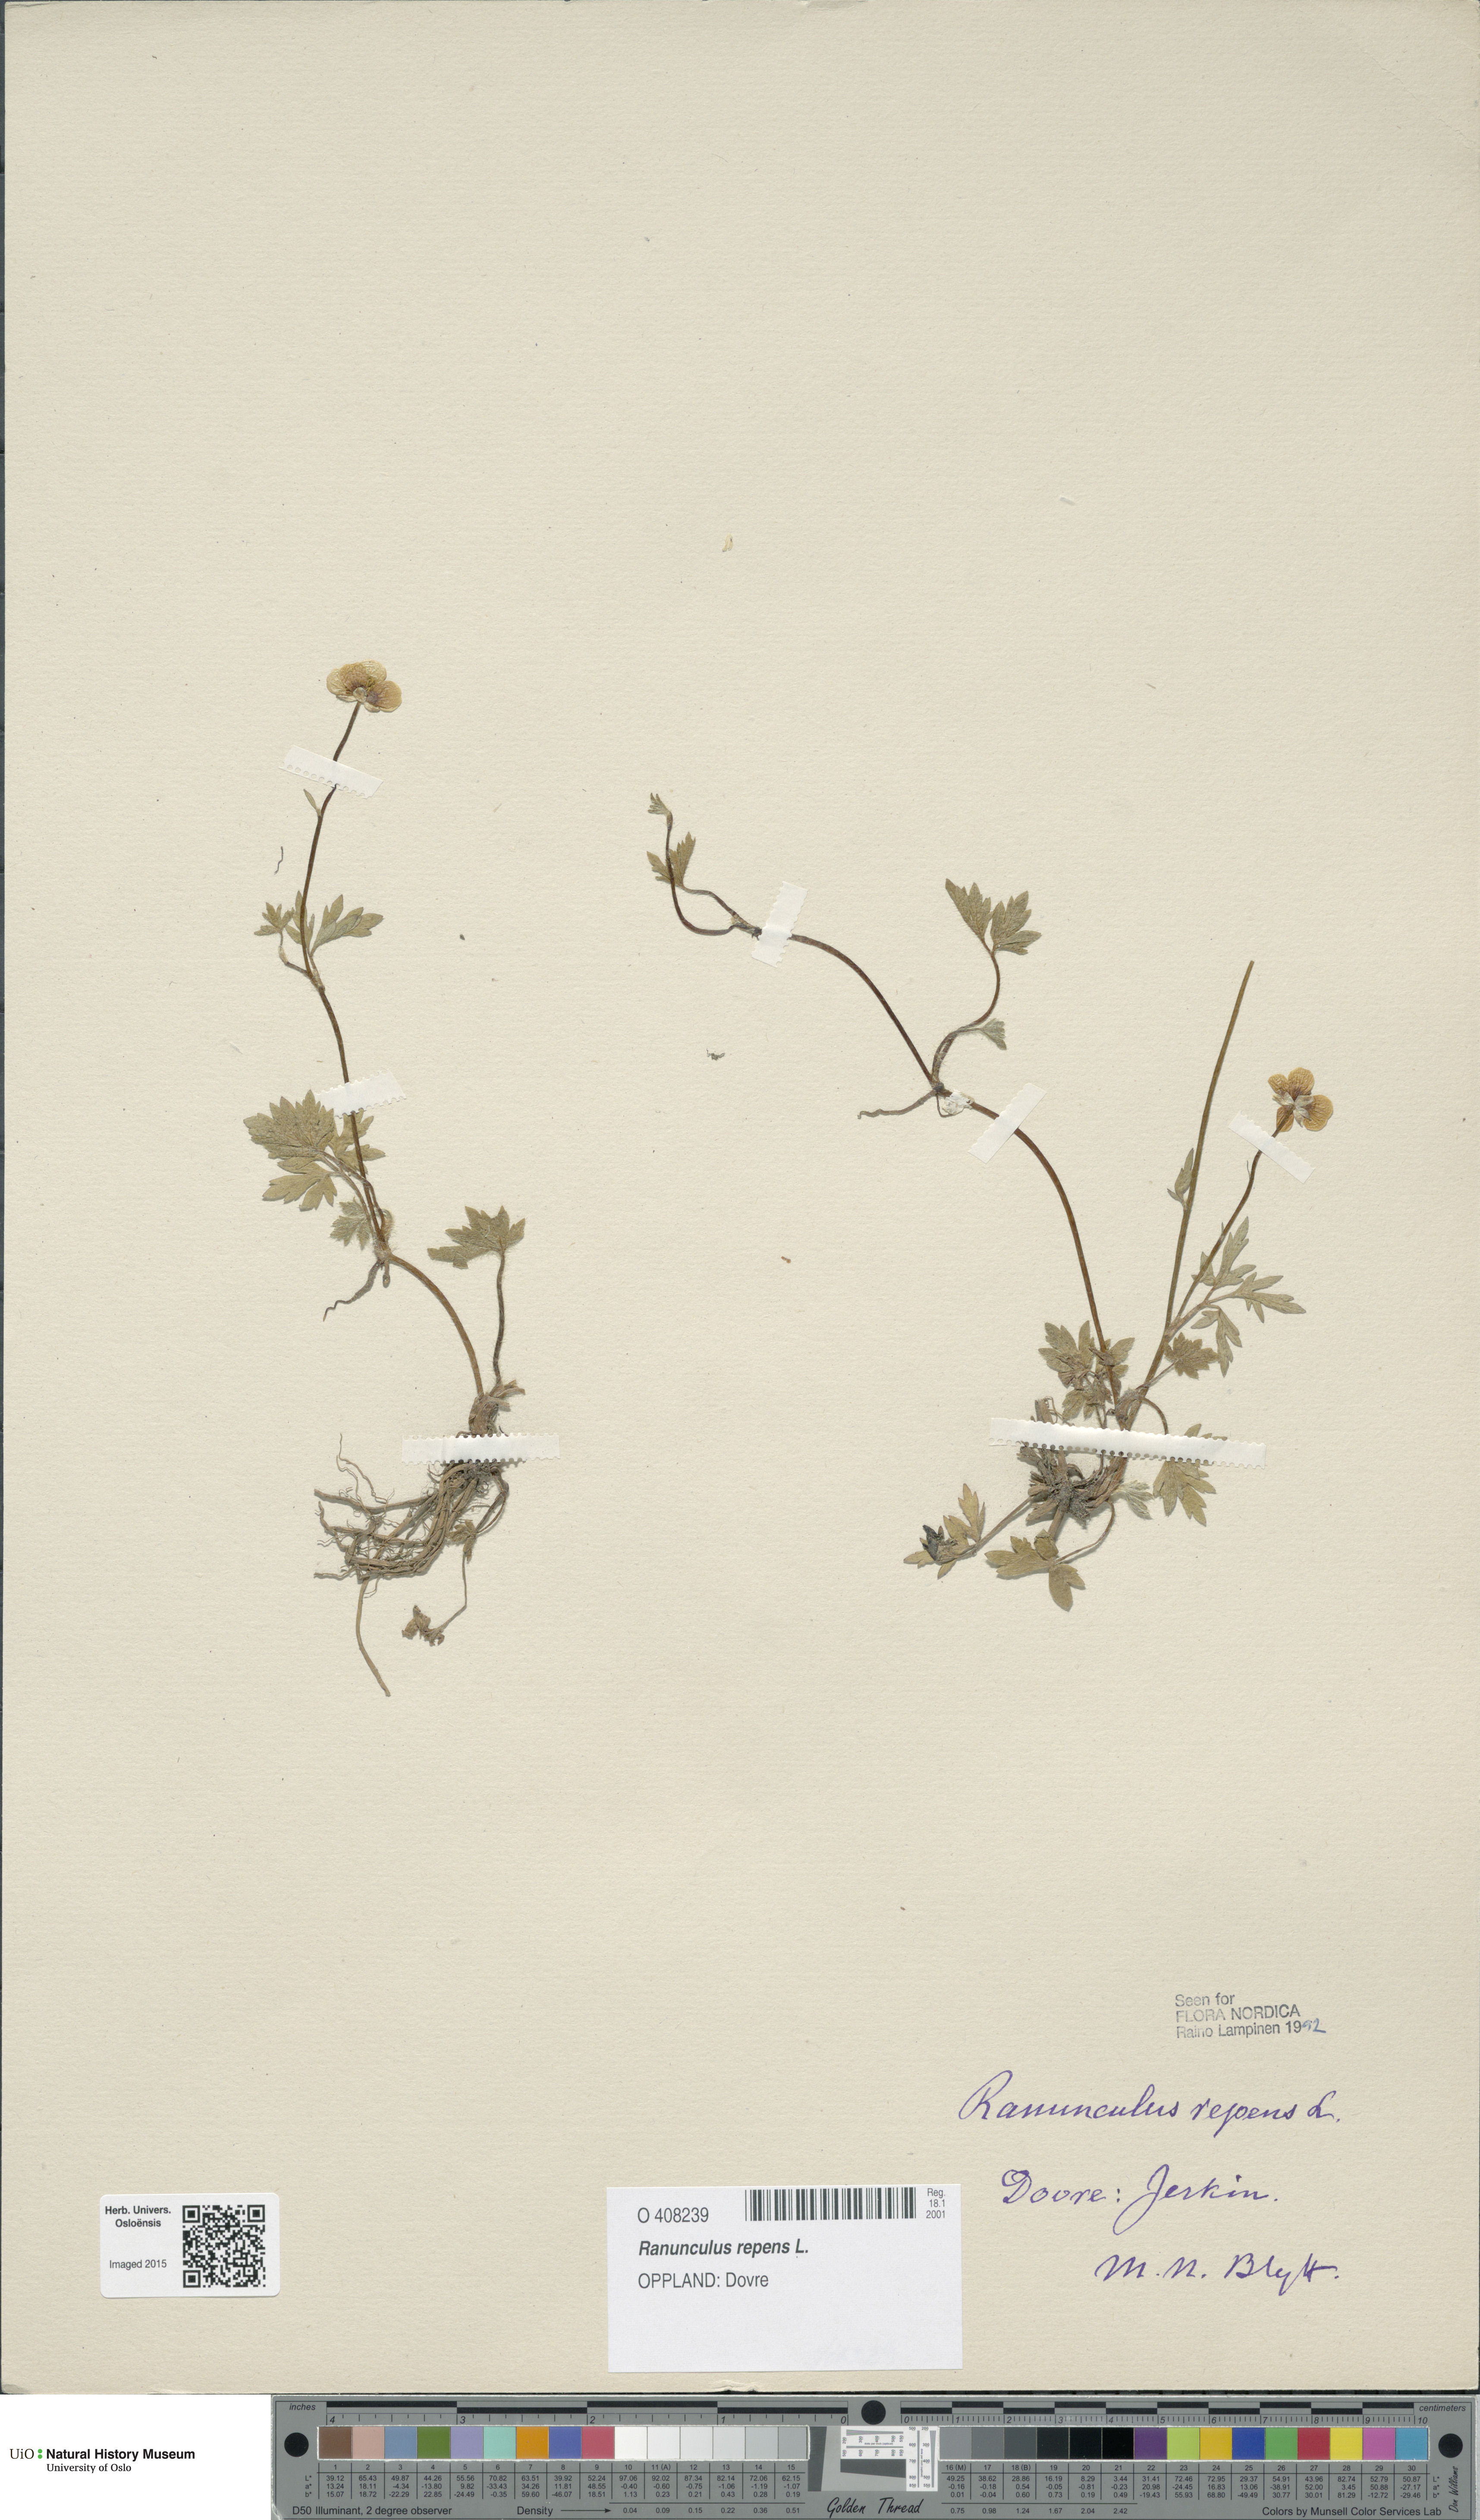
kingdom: Plantae
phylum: Tracheophyta
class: Magnoliopsida
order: Ranunculales
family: Ranunculaceae
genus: Ranunculus
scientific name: Ranunculus repens
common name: Creeping buttercup
